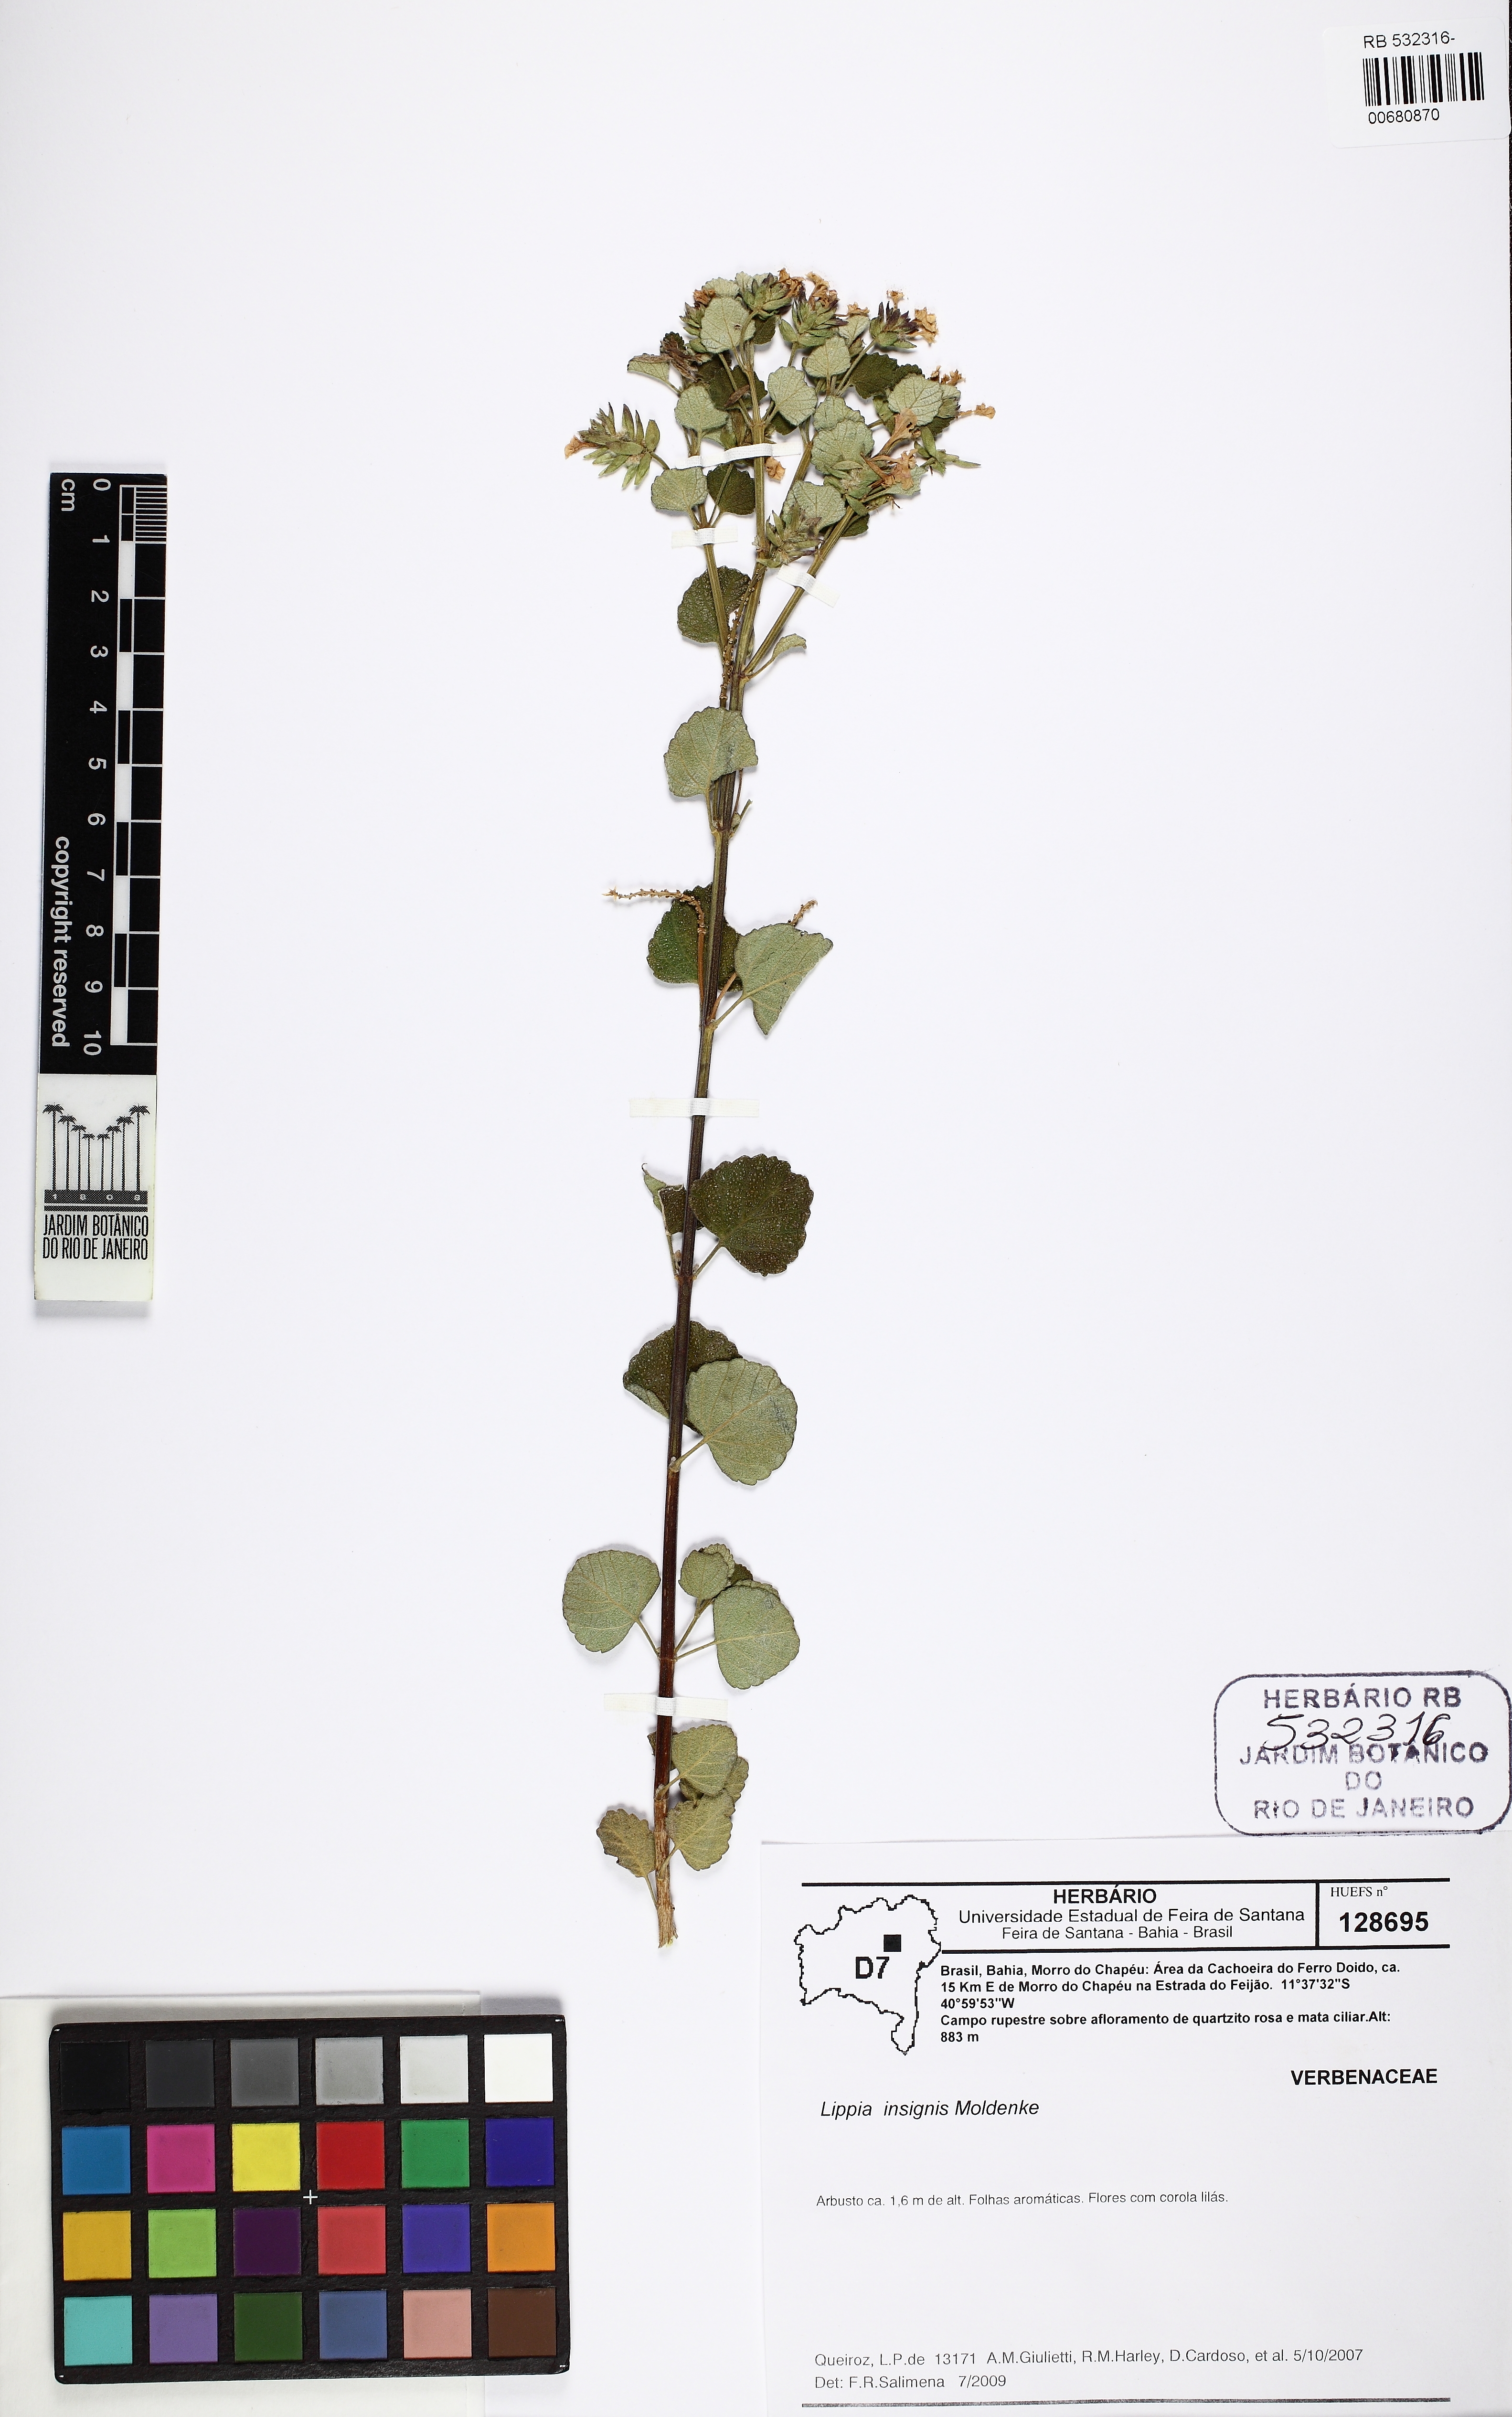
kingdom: Plantae
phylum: Tracheophyta
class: Magnoliopsida
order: Lamiales
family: Verbenaceae
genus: Lippia
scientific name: Lippia insignis
